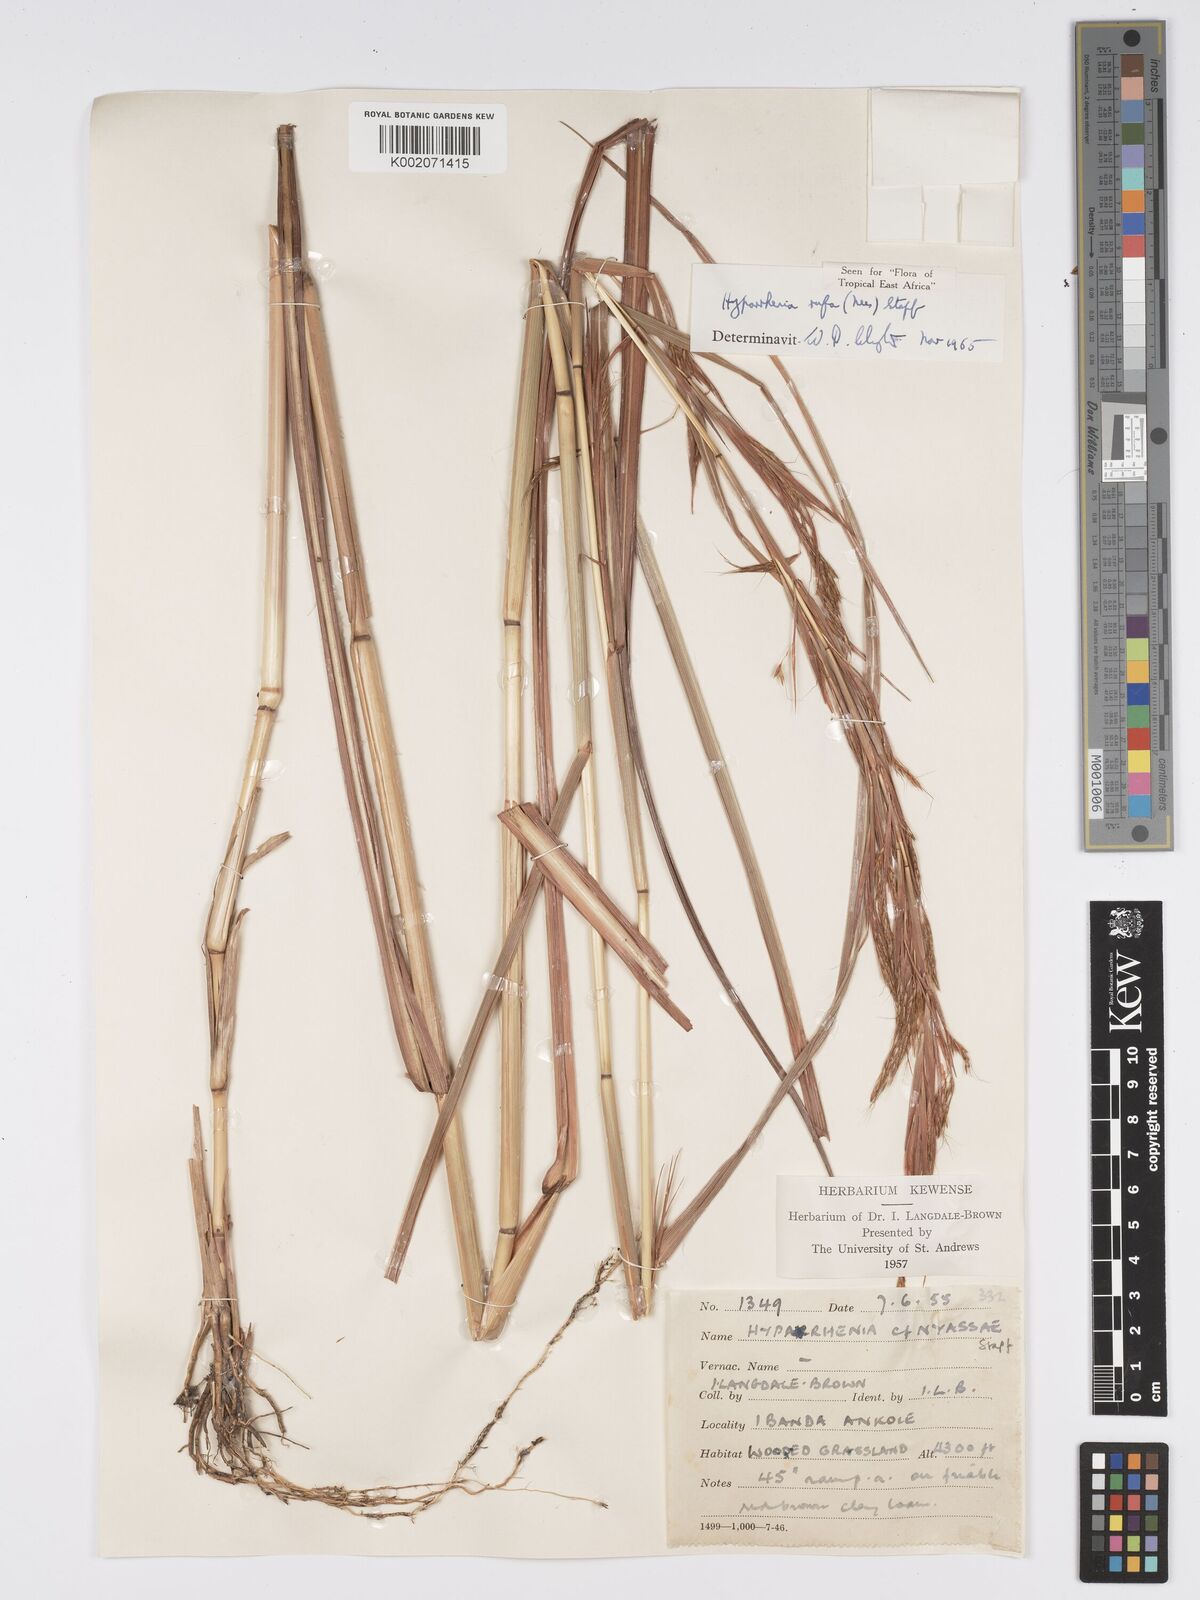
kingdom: Plantae
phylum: Tracheophyta
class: Liliopsida
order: Poales
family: Poaceae
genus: Hyparrhenia
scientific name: Hyparrhenia rufa
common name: Jaraguagrass
